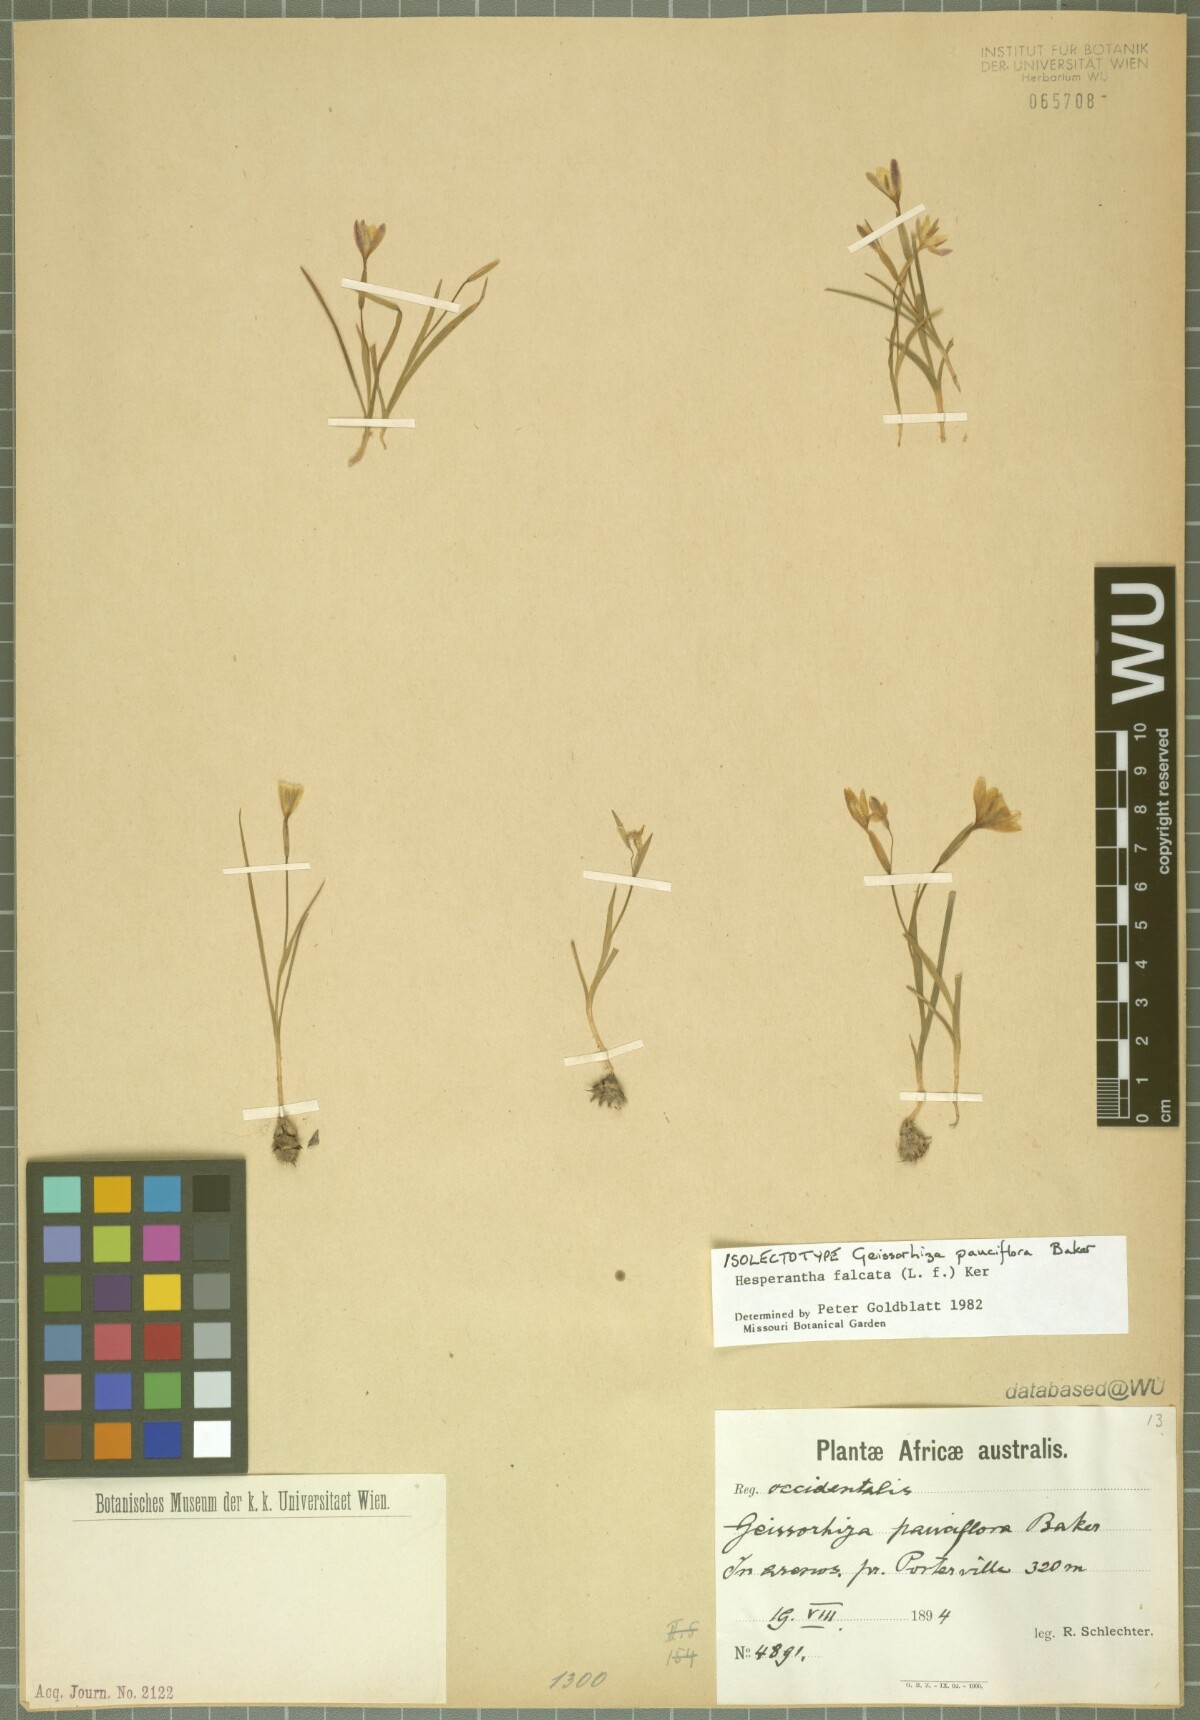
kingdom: Plantae
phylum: Tracheophyta
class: Liliopsida
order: Asparagales
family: Iridaceae
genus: Geissorhiza
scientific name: Geissorhiza pauciflora
